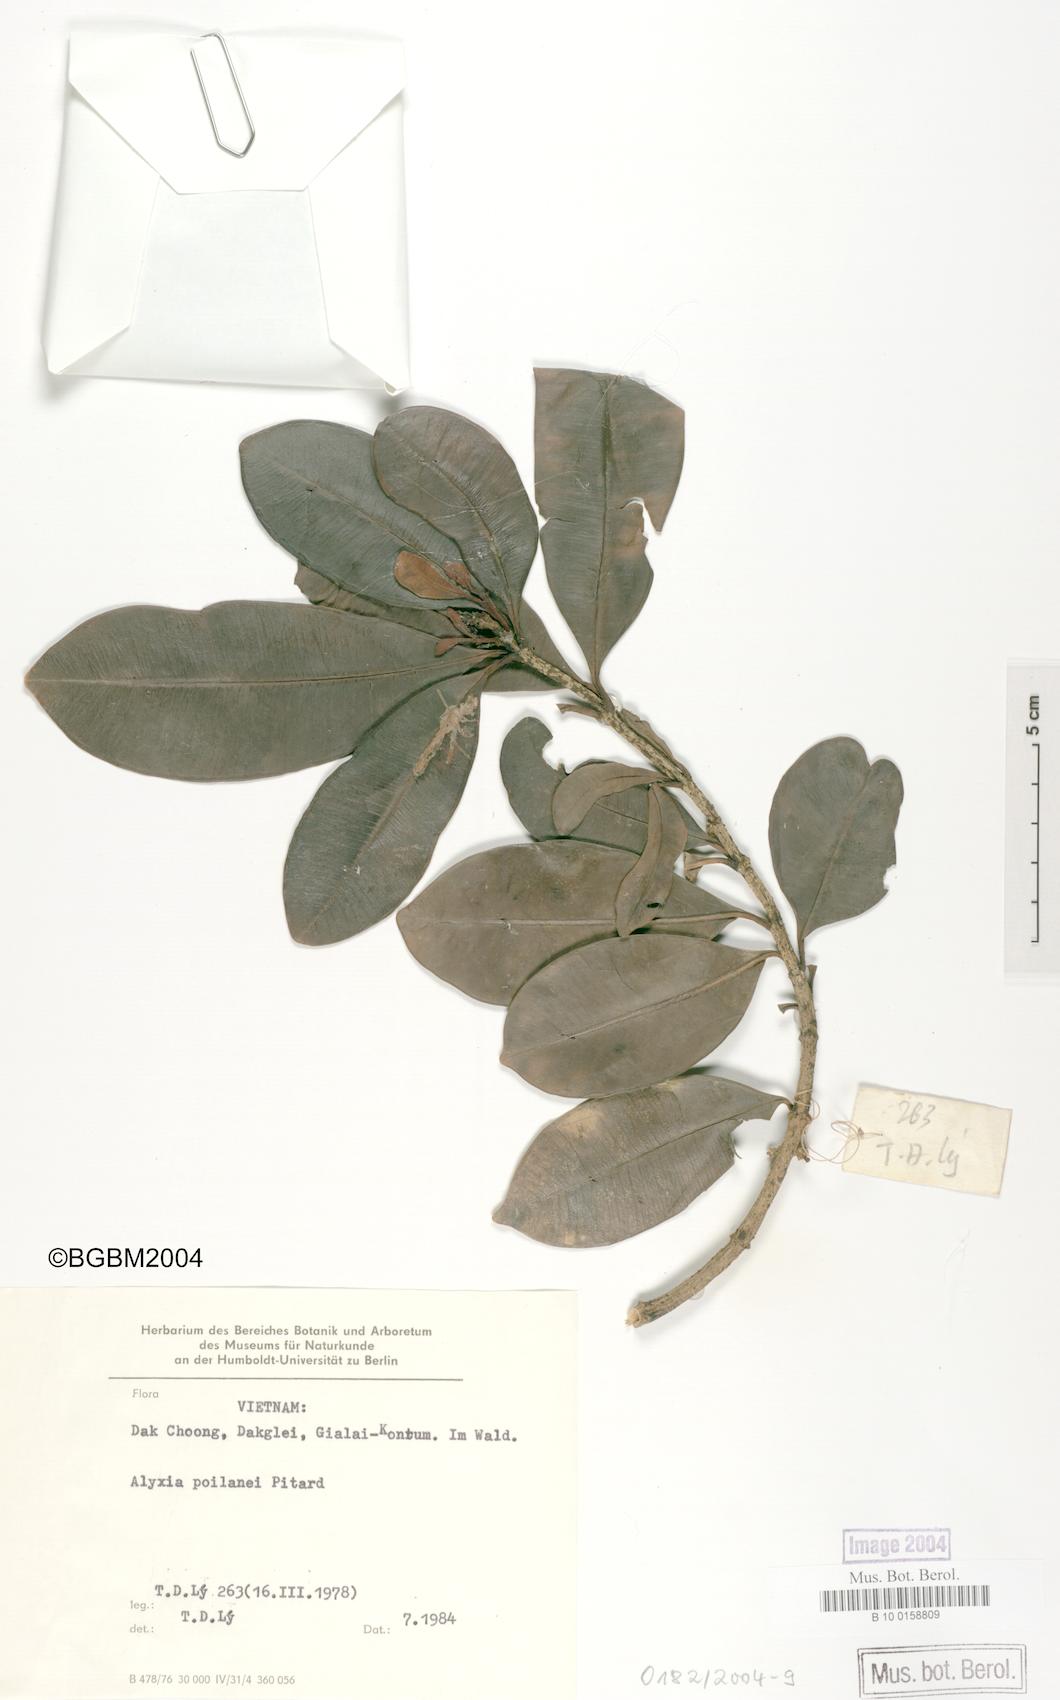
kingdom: Plantae
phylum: Tracheophyta
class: Magnoliopsida
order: Gentianales
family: Apocynaceae
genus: Alyxia
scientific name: Alyxia annamensis
